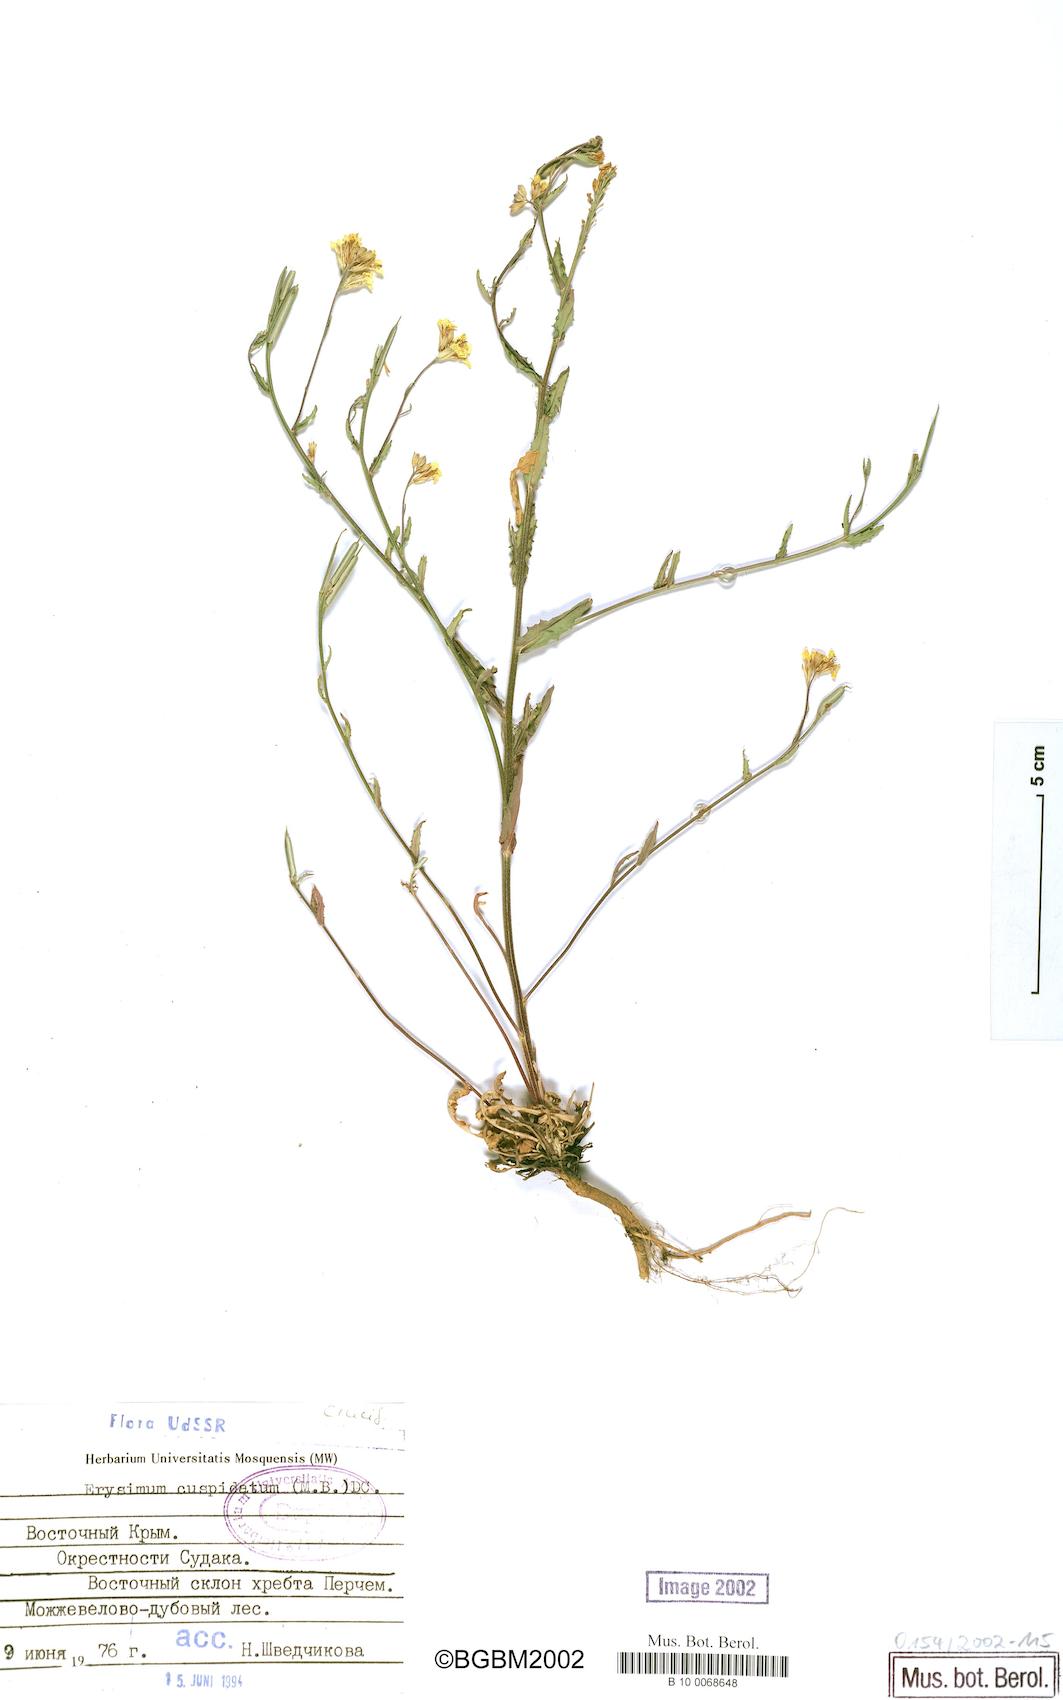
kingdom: Plantae
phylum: Tracheophyta
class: Magnoliopsida
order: Brassicales
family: Brassicaceae
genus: Erysimum
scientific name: Erysimum cuspidatum
